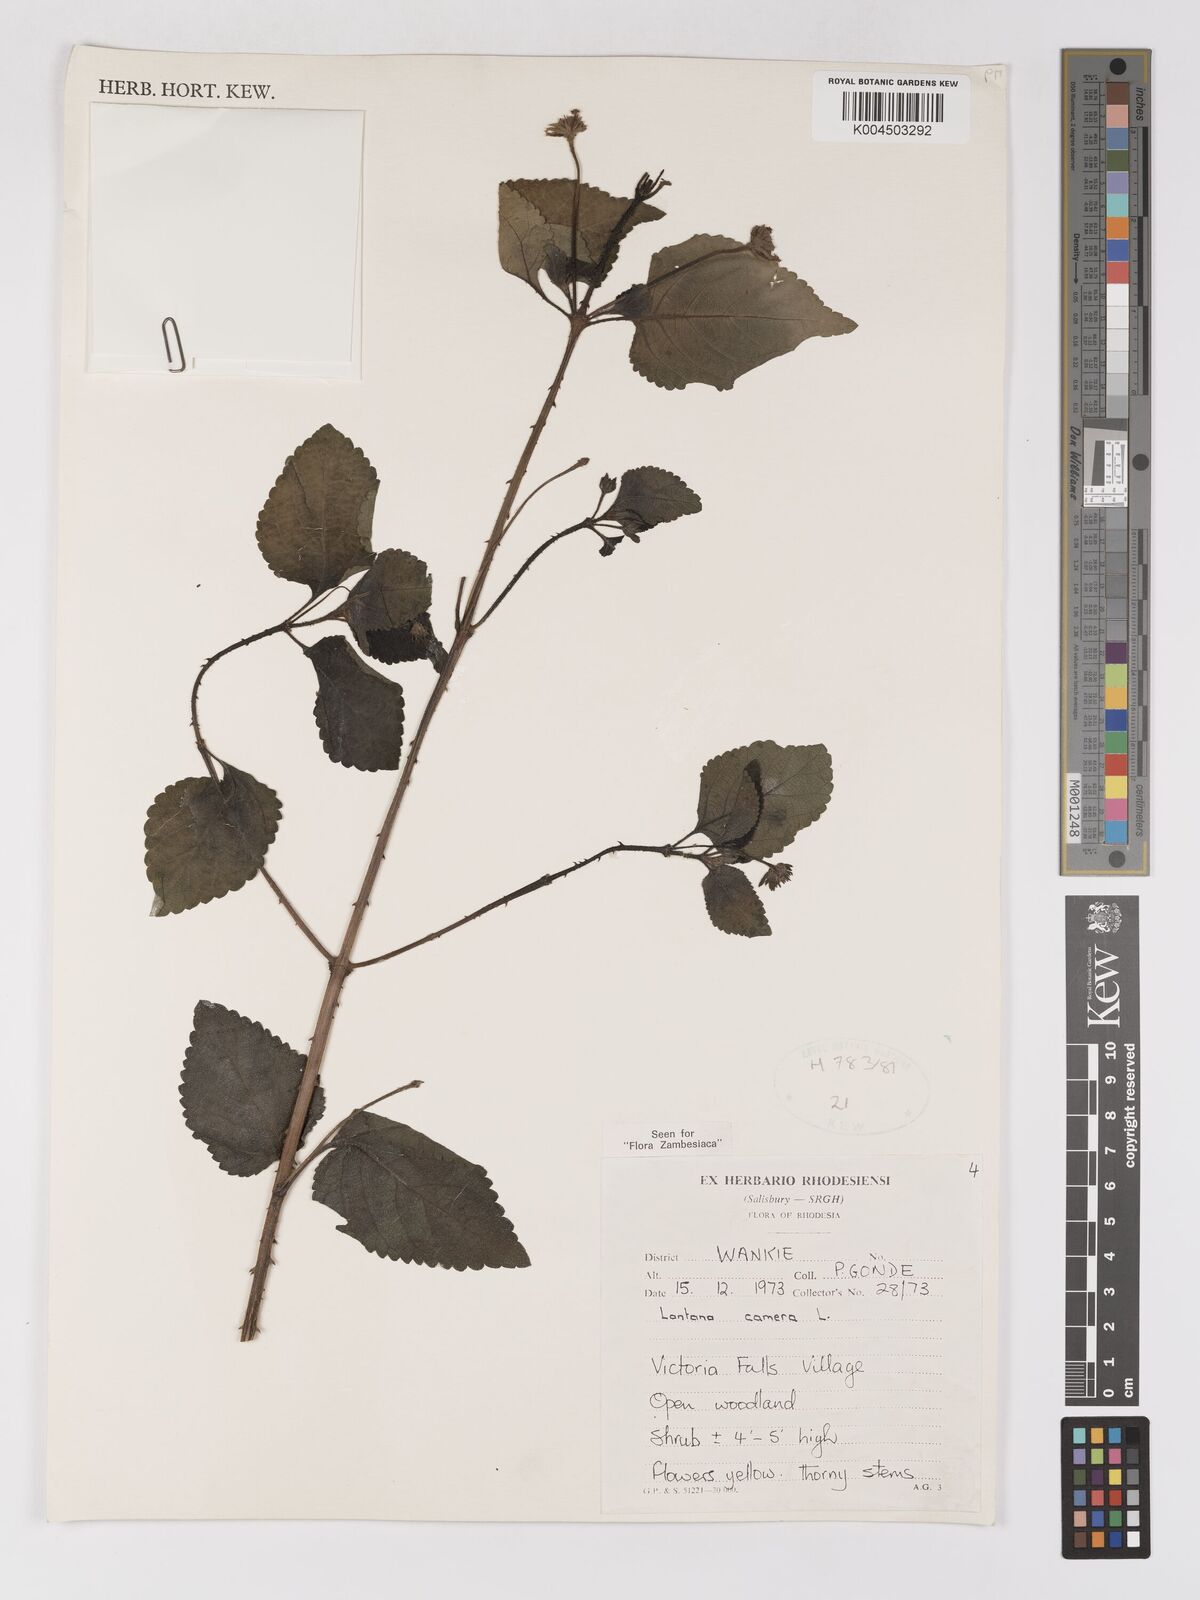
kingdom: Plantae
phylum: Tracheophyta
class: Magnoliopsida
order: Lamiales
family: Verbenaceae
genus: Lantana
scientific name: Lantana camara
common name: Lantana
